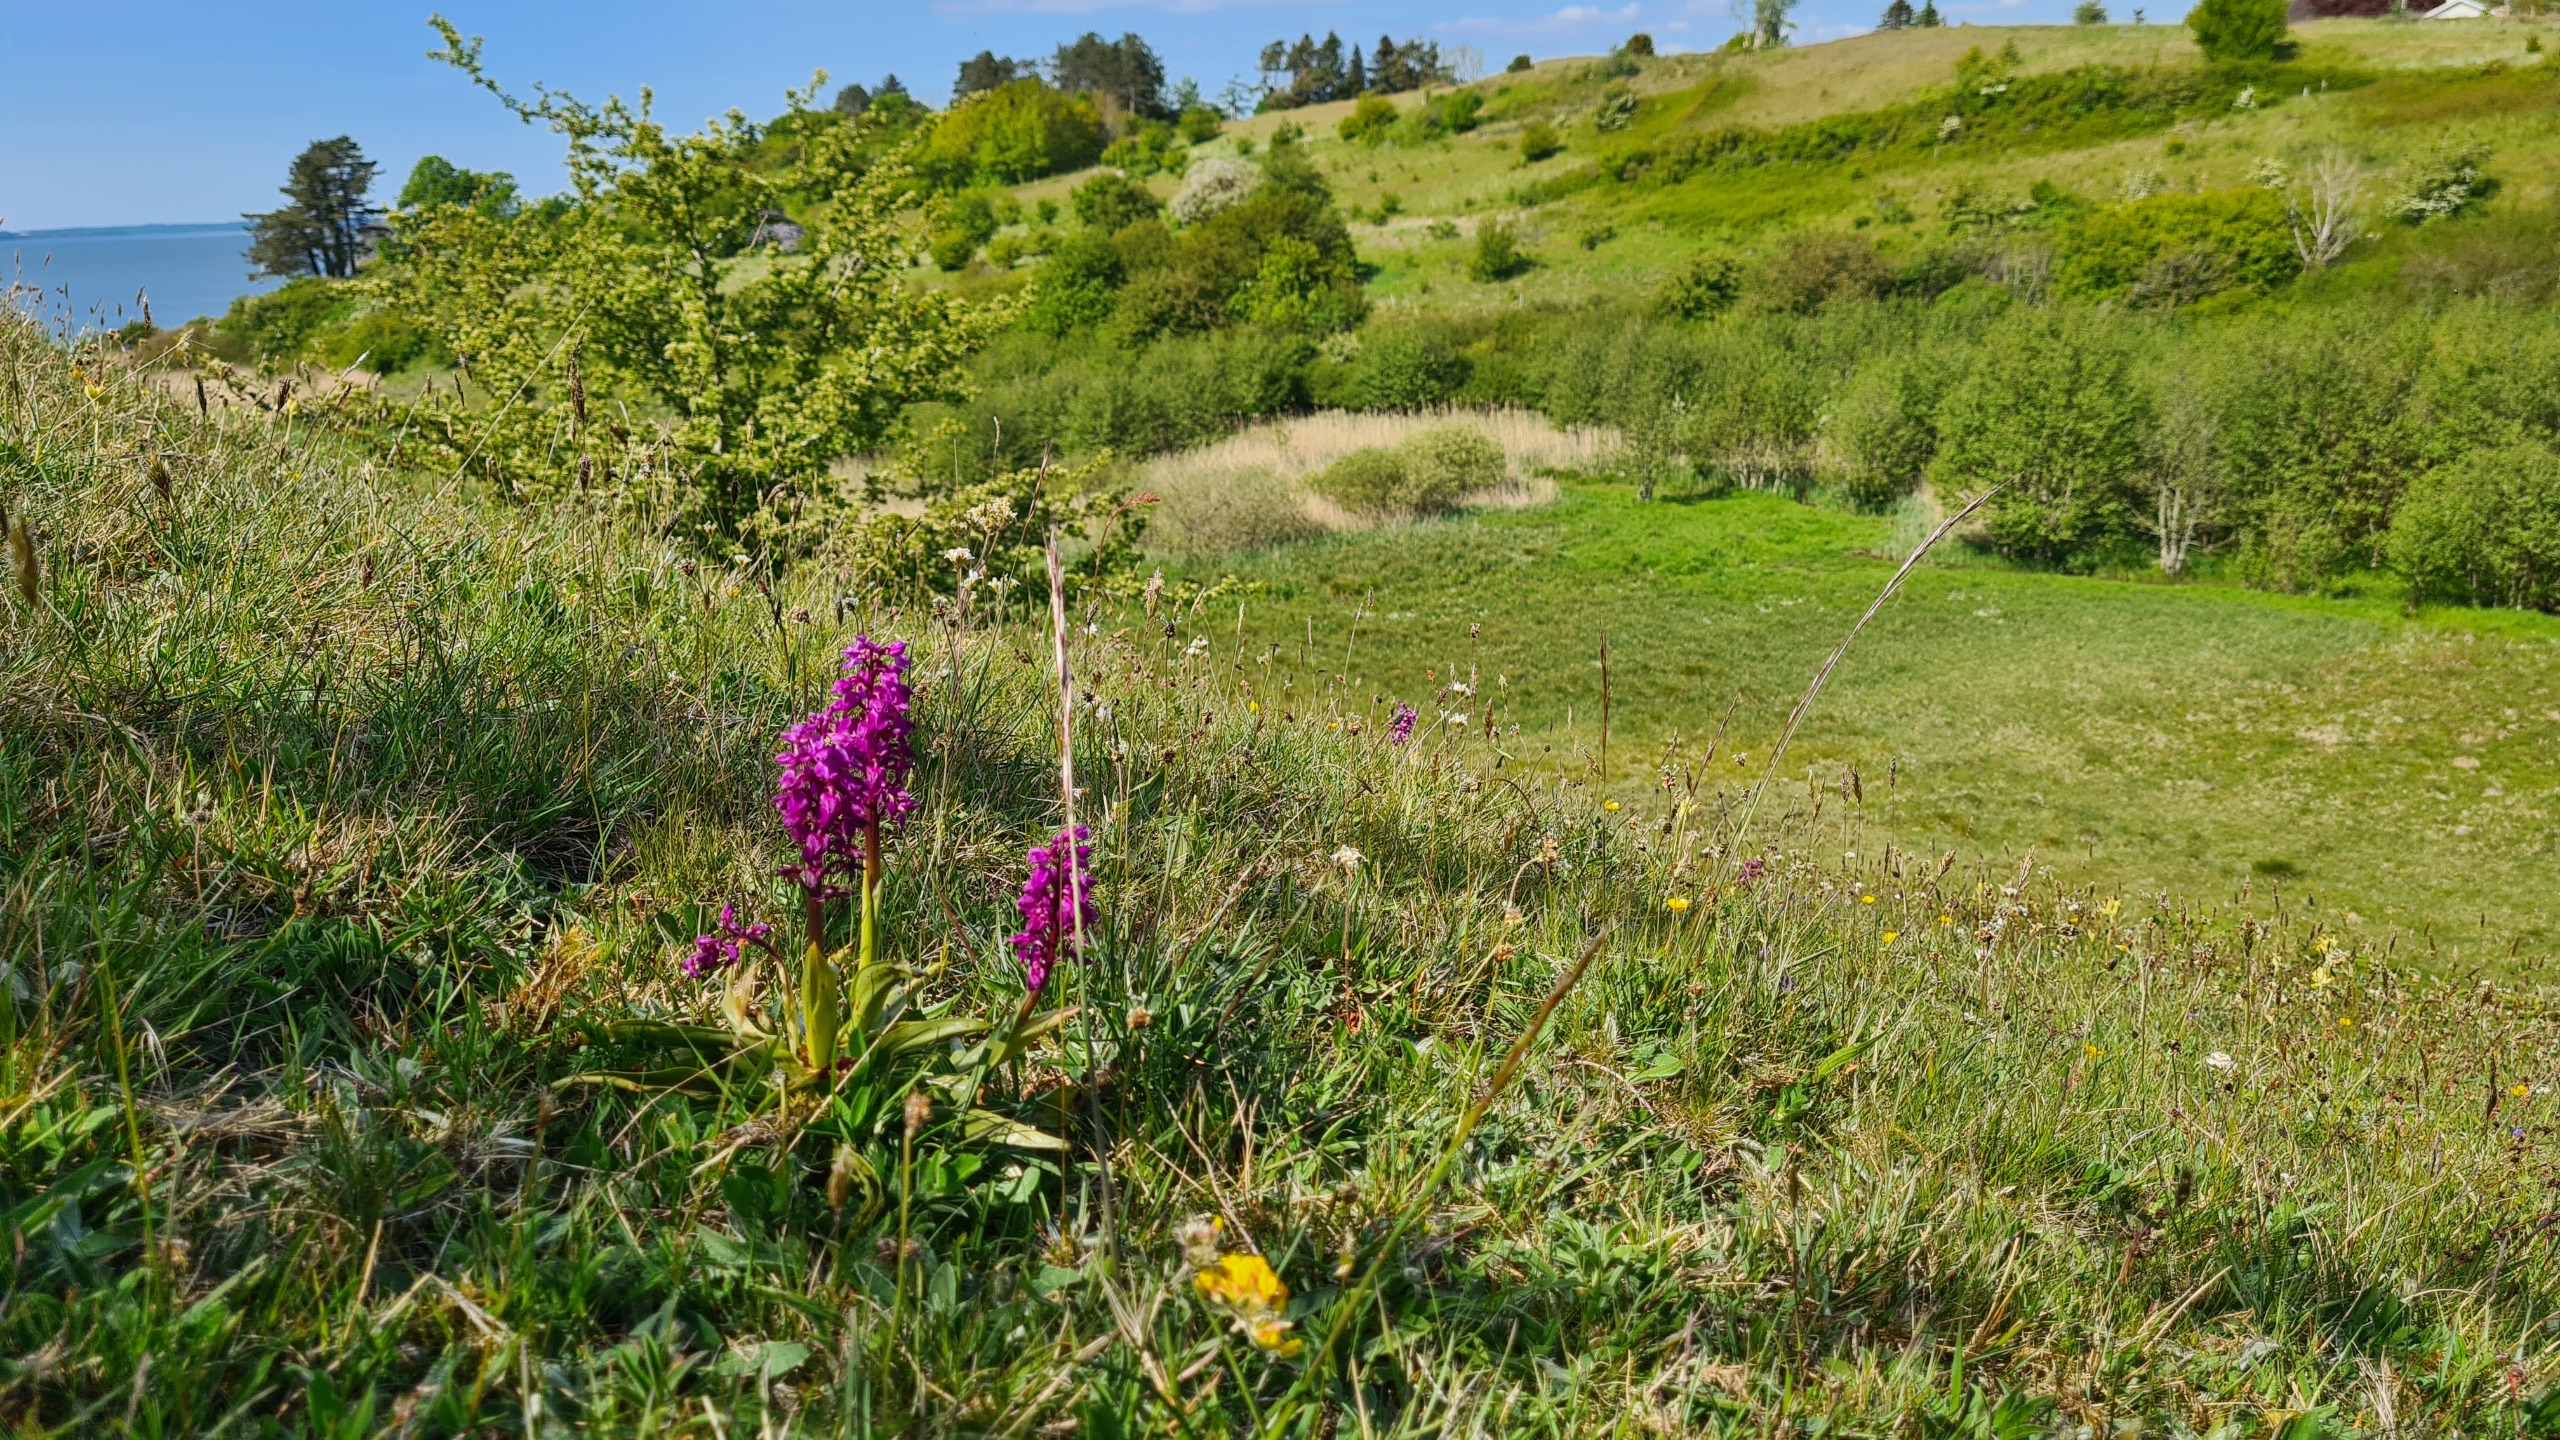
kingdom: Plantae
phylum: Tracheophyta
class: Liliopsida
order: Asparagales
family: Orchidaceae
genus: Orchis
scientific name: Orchis mascula
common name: Tyndakset gøgeurt
